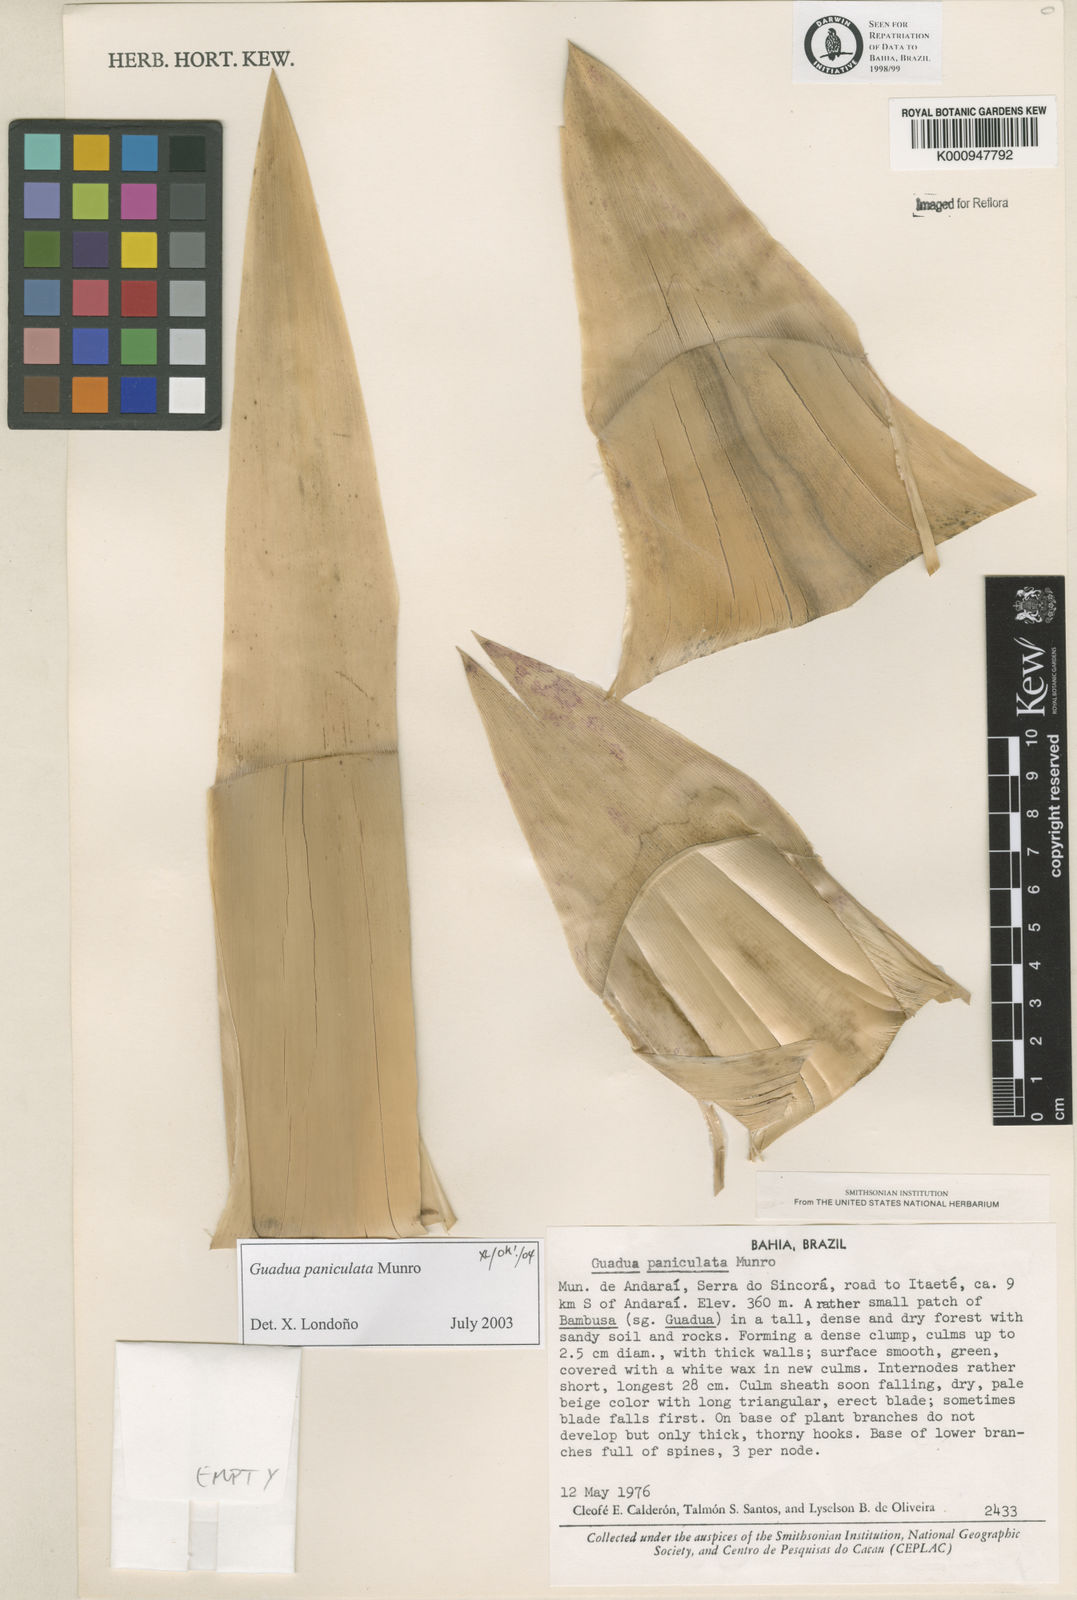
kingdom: Plantae
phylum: Tracheophyta
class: Liliopsida
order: Poales
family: Poaceae
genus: Guadua
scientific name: Guadua paniculata
